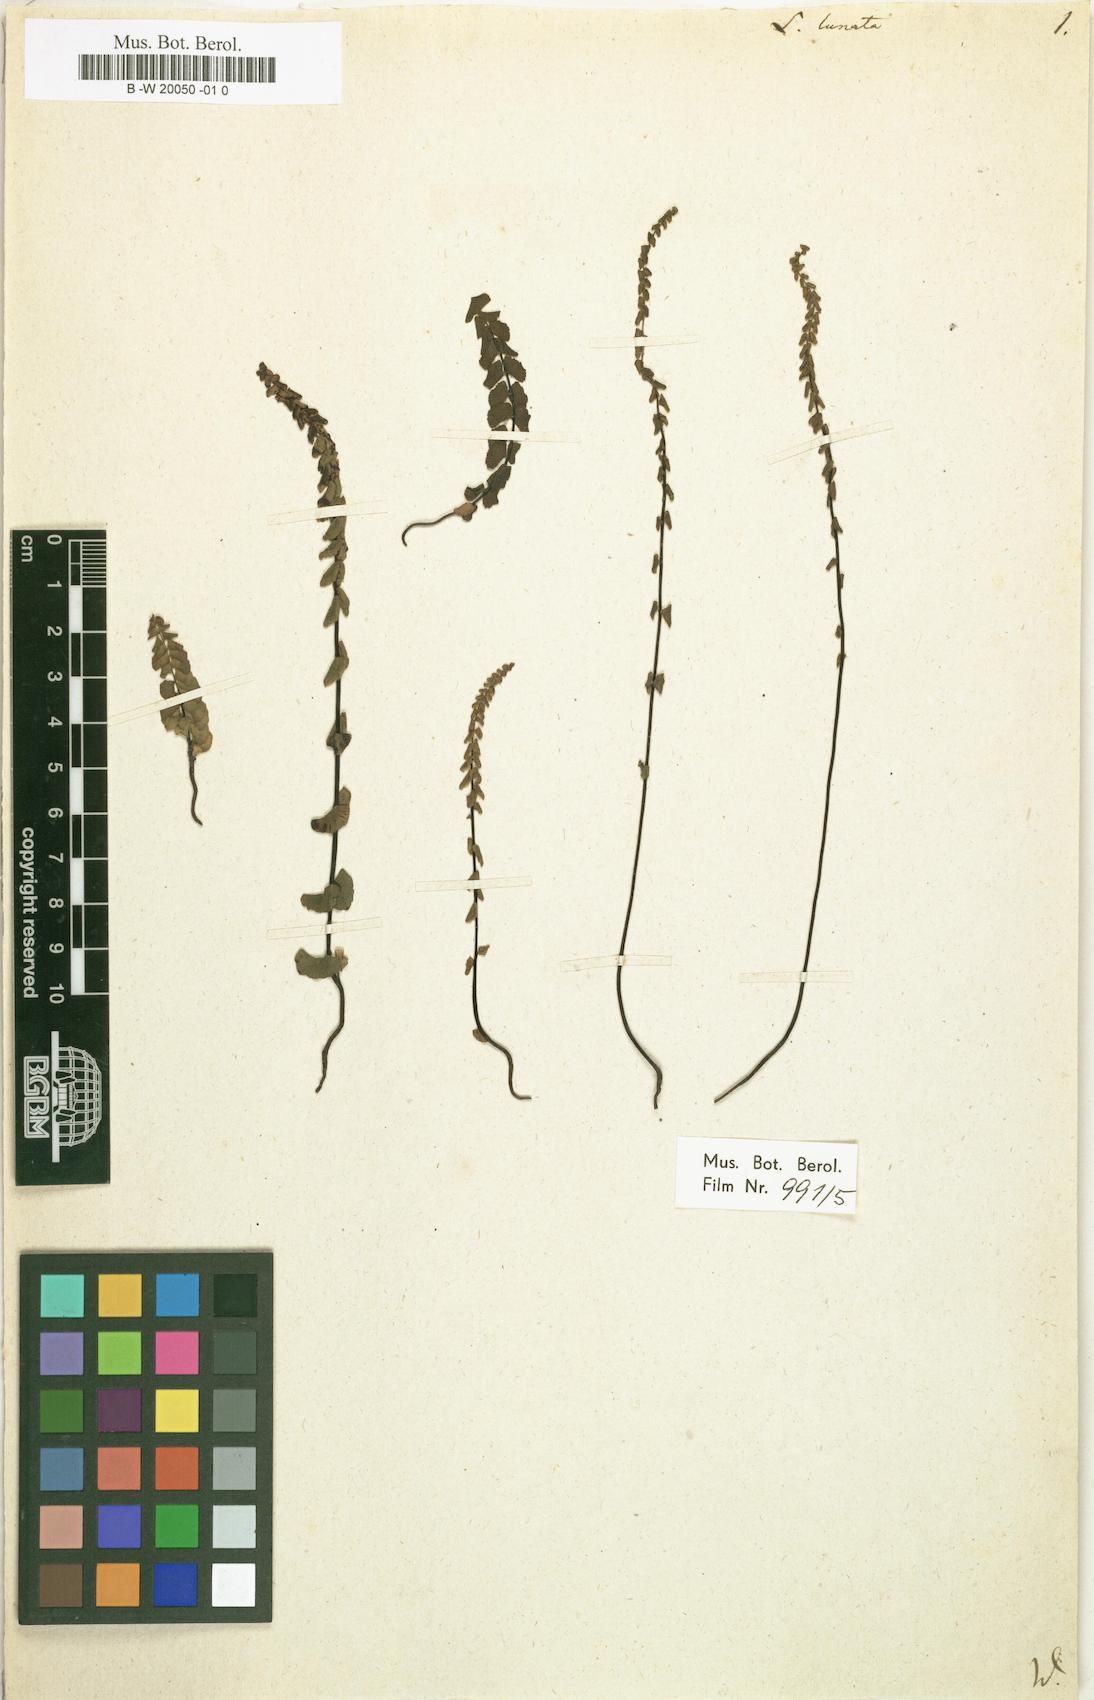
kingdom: Plantae
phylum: Tracheophyta
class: Polypodiopsida
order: Polypodiales
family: Lindsaeaceae
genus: Lindsaea
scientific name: Lindsaea linearis
